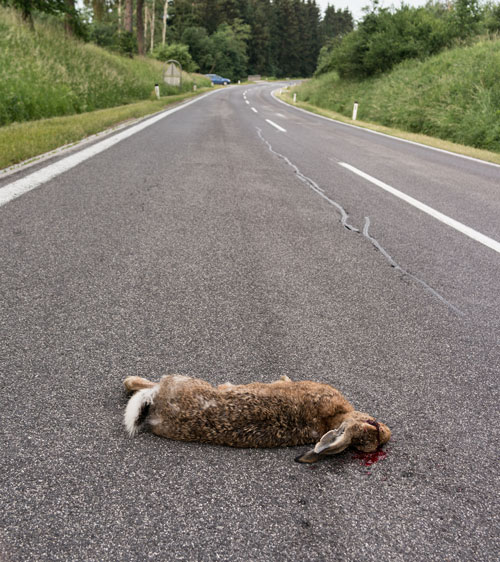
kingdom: Animalia
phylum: Chordata
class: Mammalia
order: Lagomorpha
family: Leporidae
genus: Lepus
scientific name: Lepus europaeus
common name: European hare
